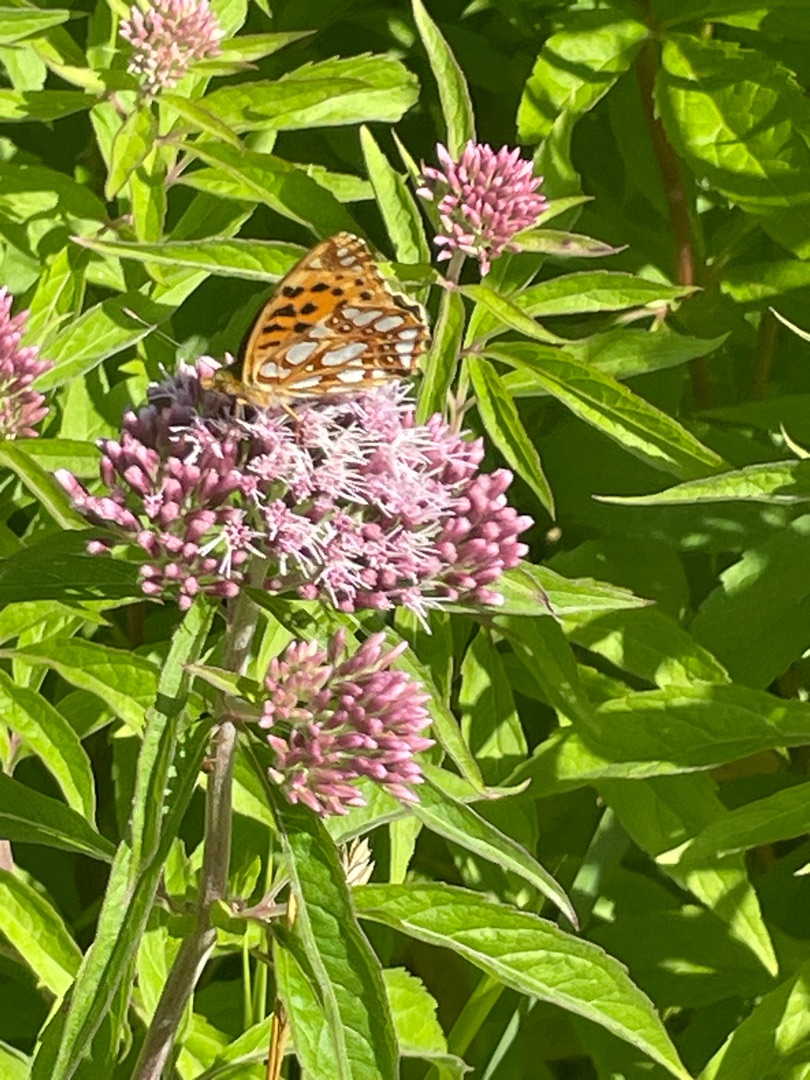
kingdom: Animalia
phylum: Arthropoda
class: Insecta
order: Lepidoptera
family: Nymphalidae
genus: Issoria
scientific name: Issoria lathonia
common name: Storplettet perlemorsommerfugl
